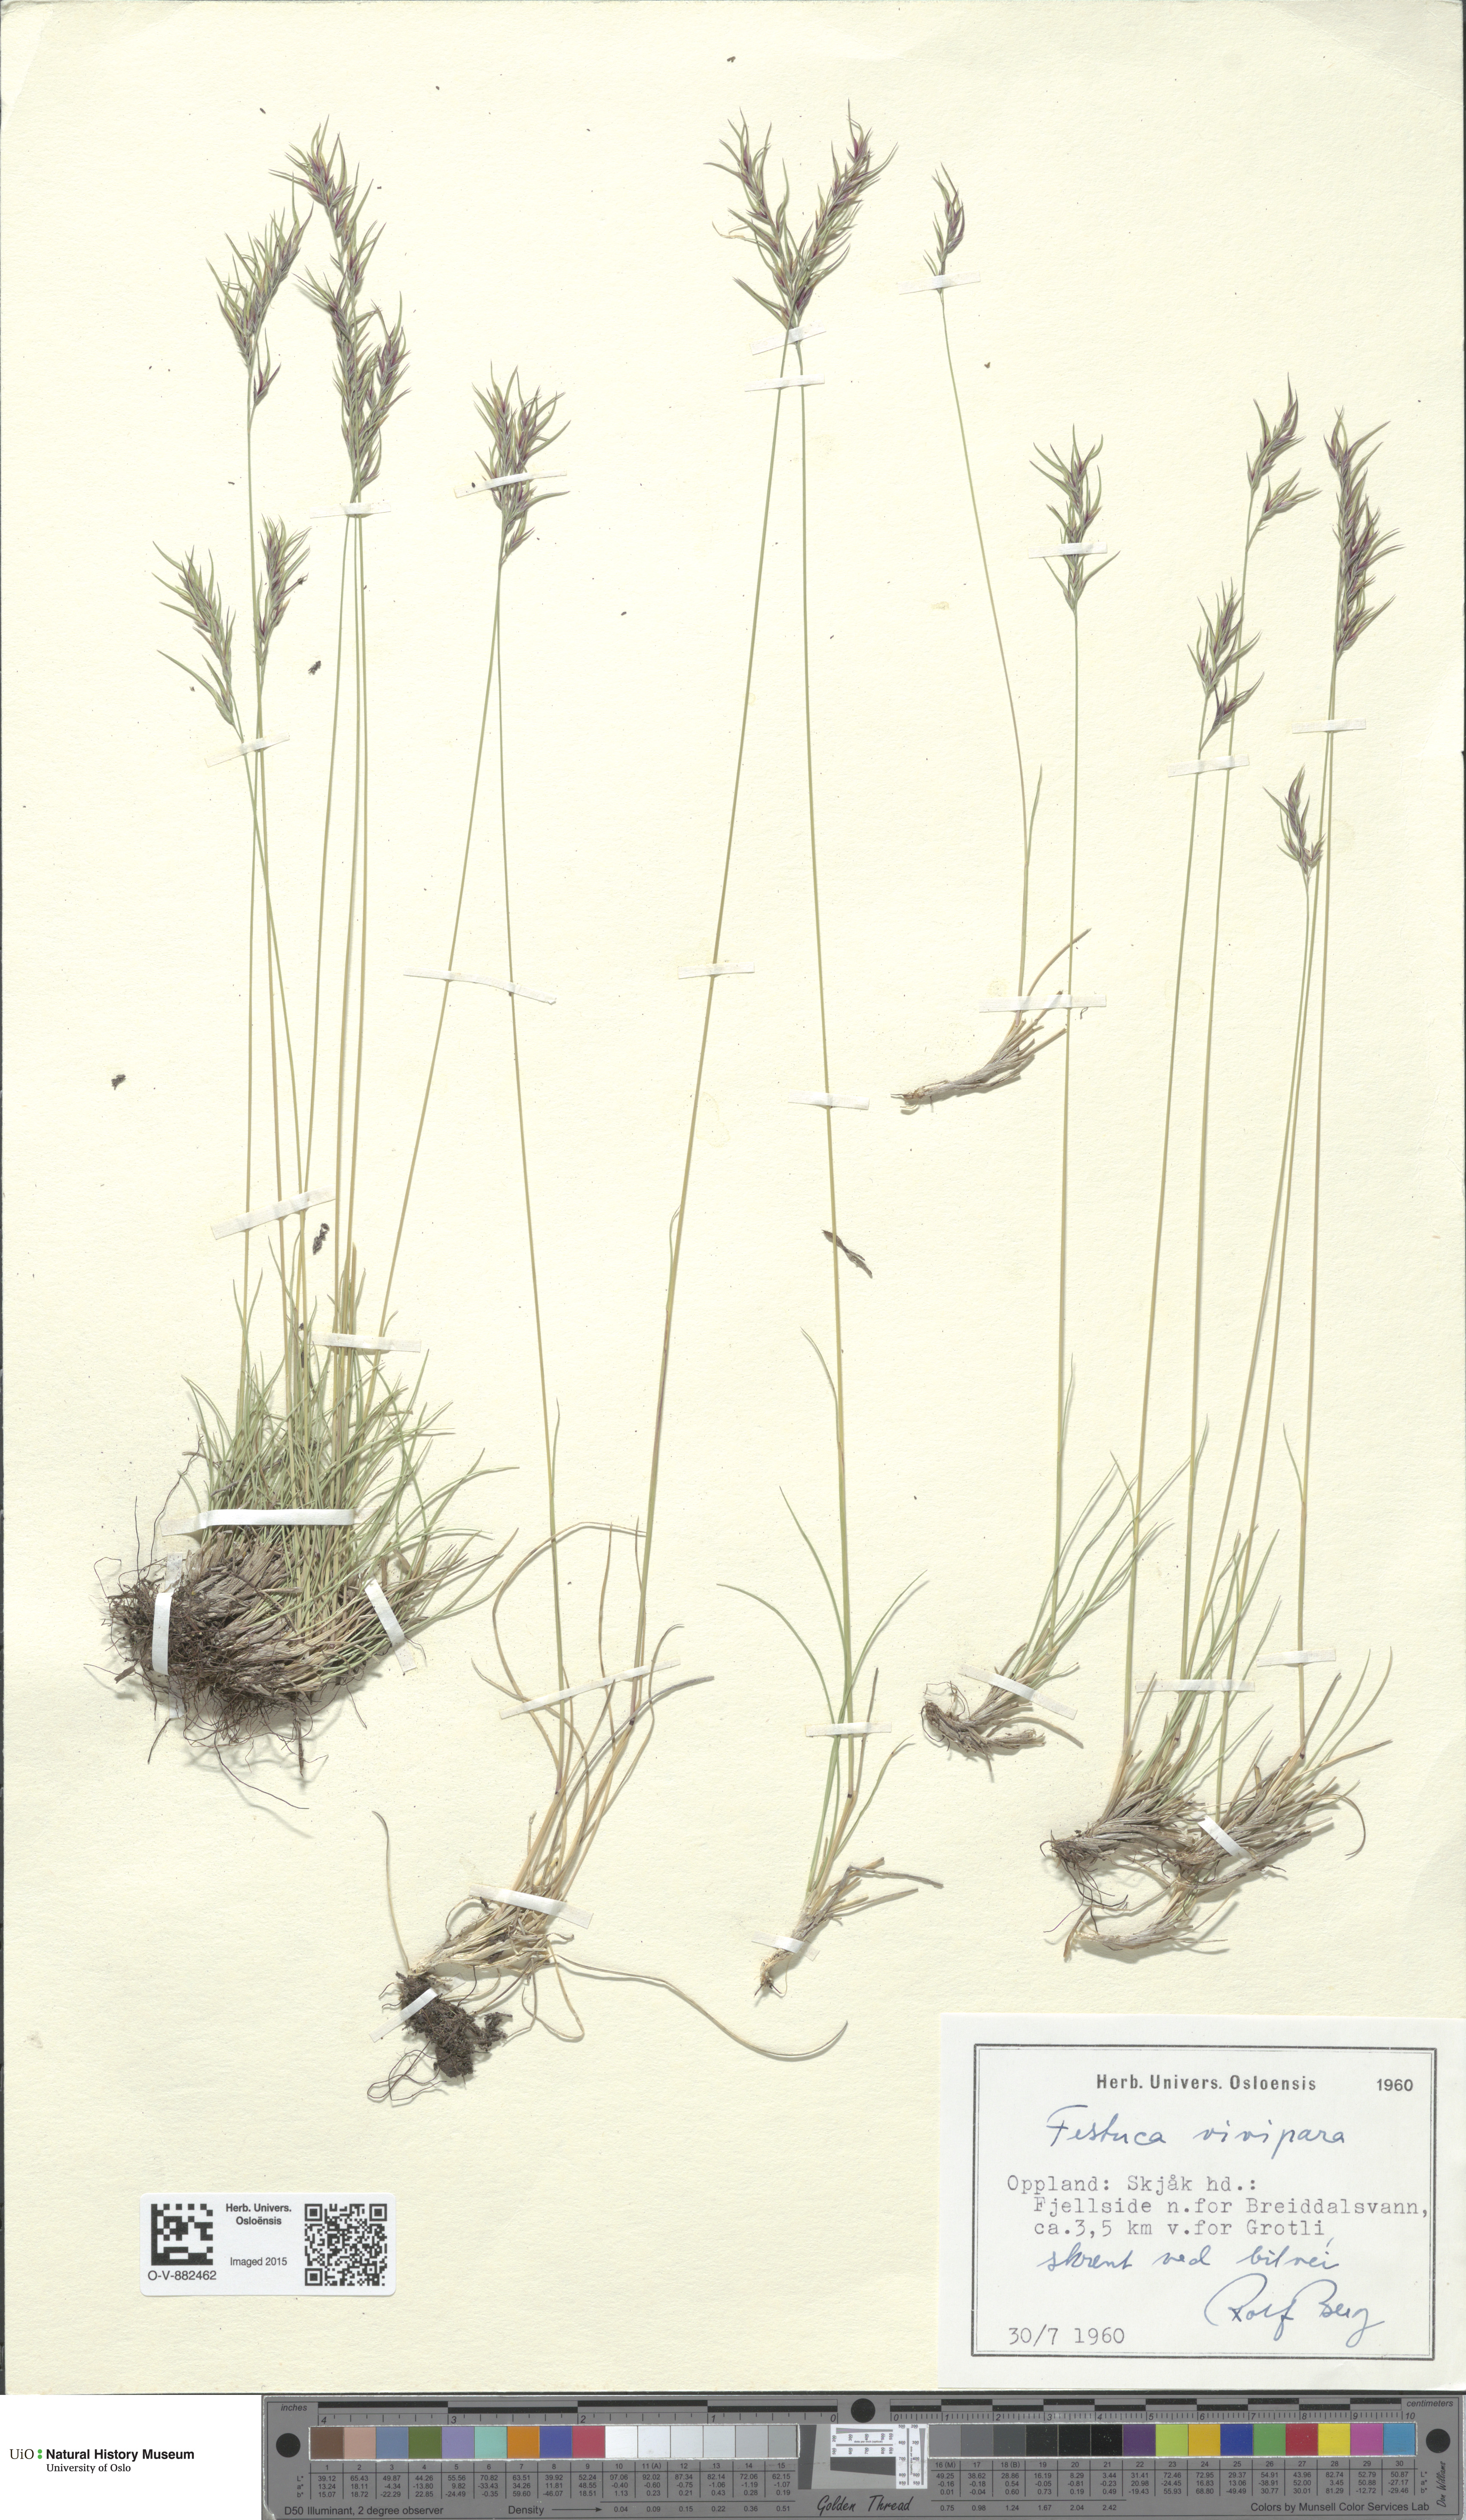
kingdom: Plantae
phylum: Tracheophyta
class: Liliopsida
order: Poales
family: Poaceae
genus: Festuca
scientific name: Festuca vivipara
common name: Viviparous sheep's-fescue
